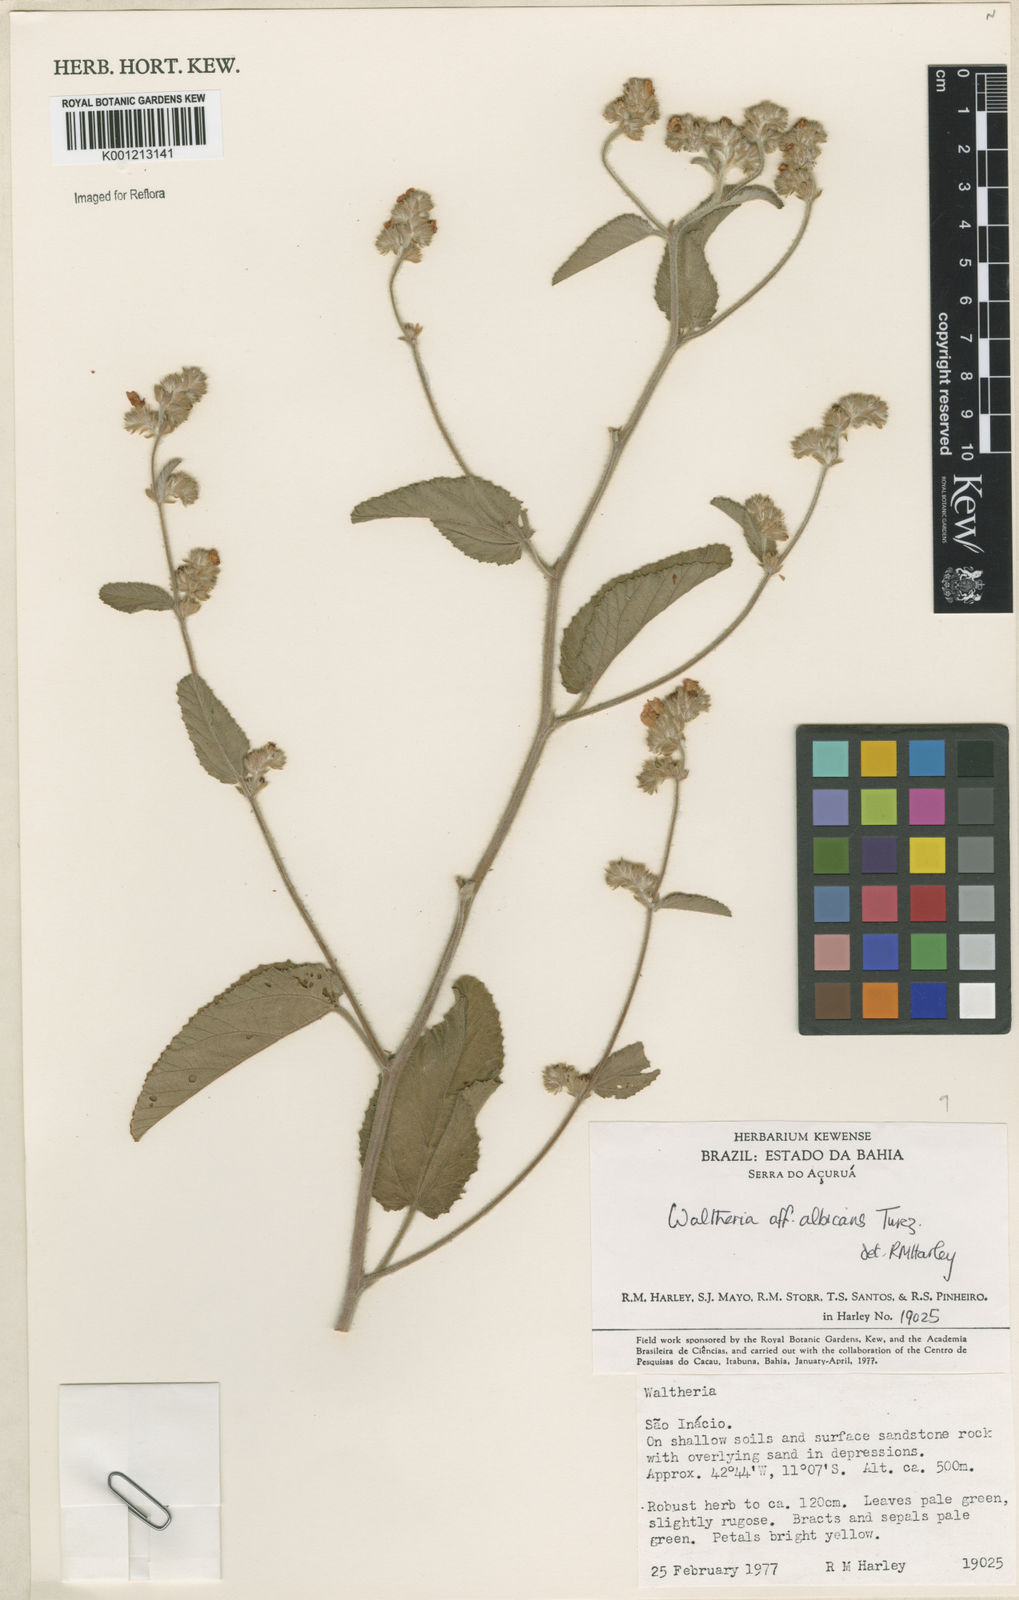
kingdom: Plantae
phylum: Tracheophyta
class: Magnoliopsida
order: Malvales
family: Malvaceae
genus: Waltheria
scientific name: Waltheria albicans
